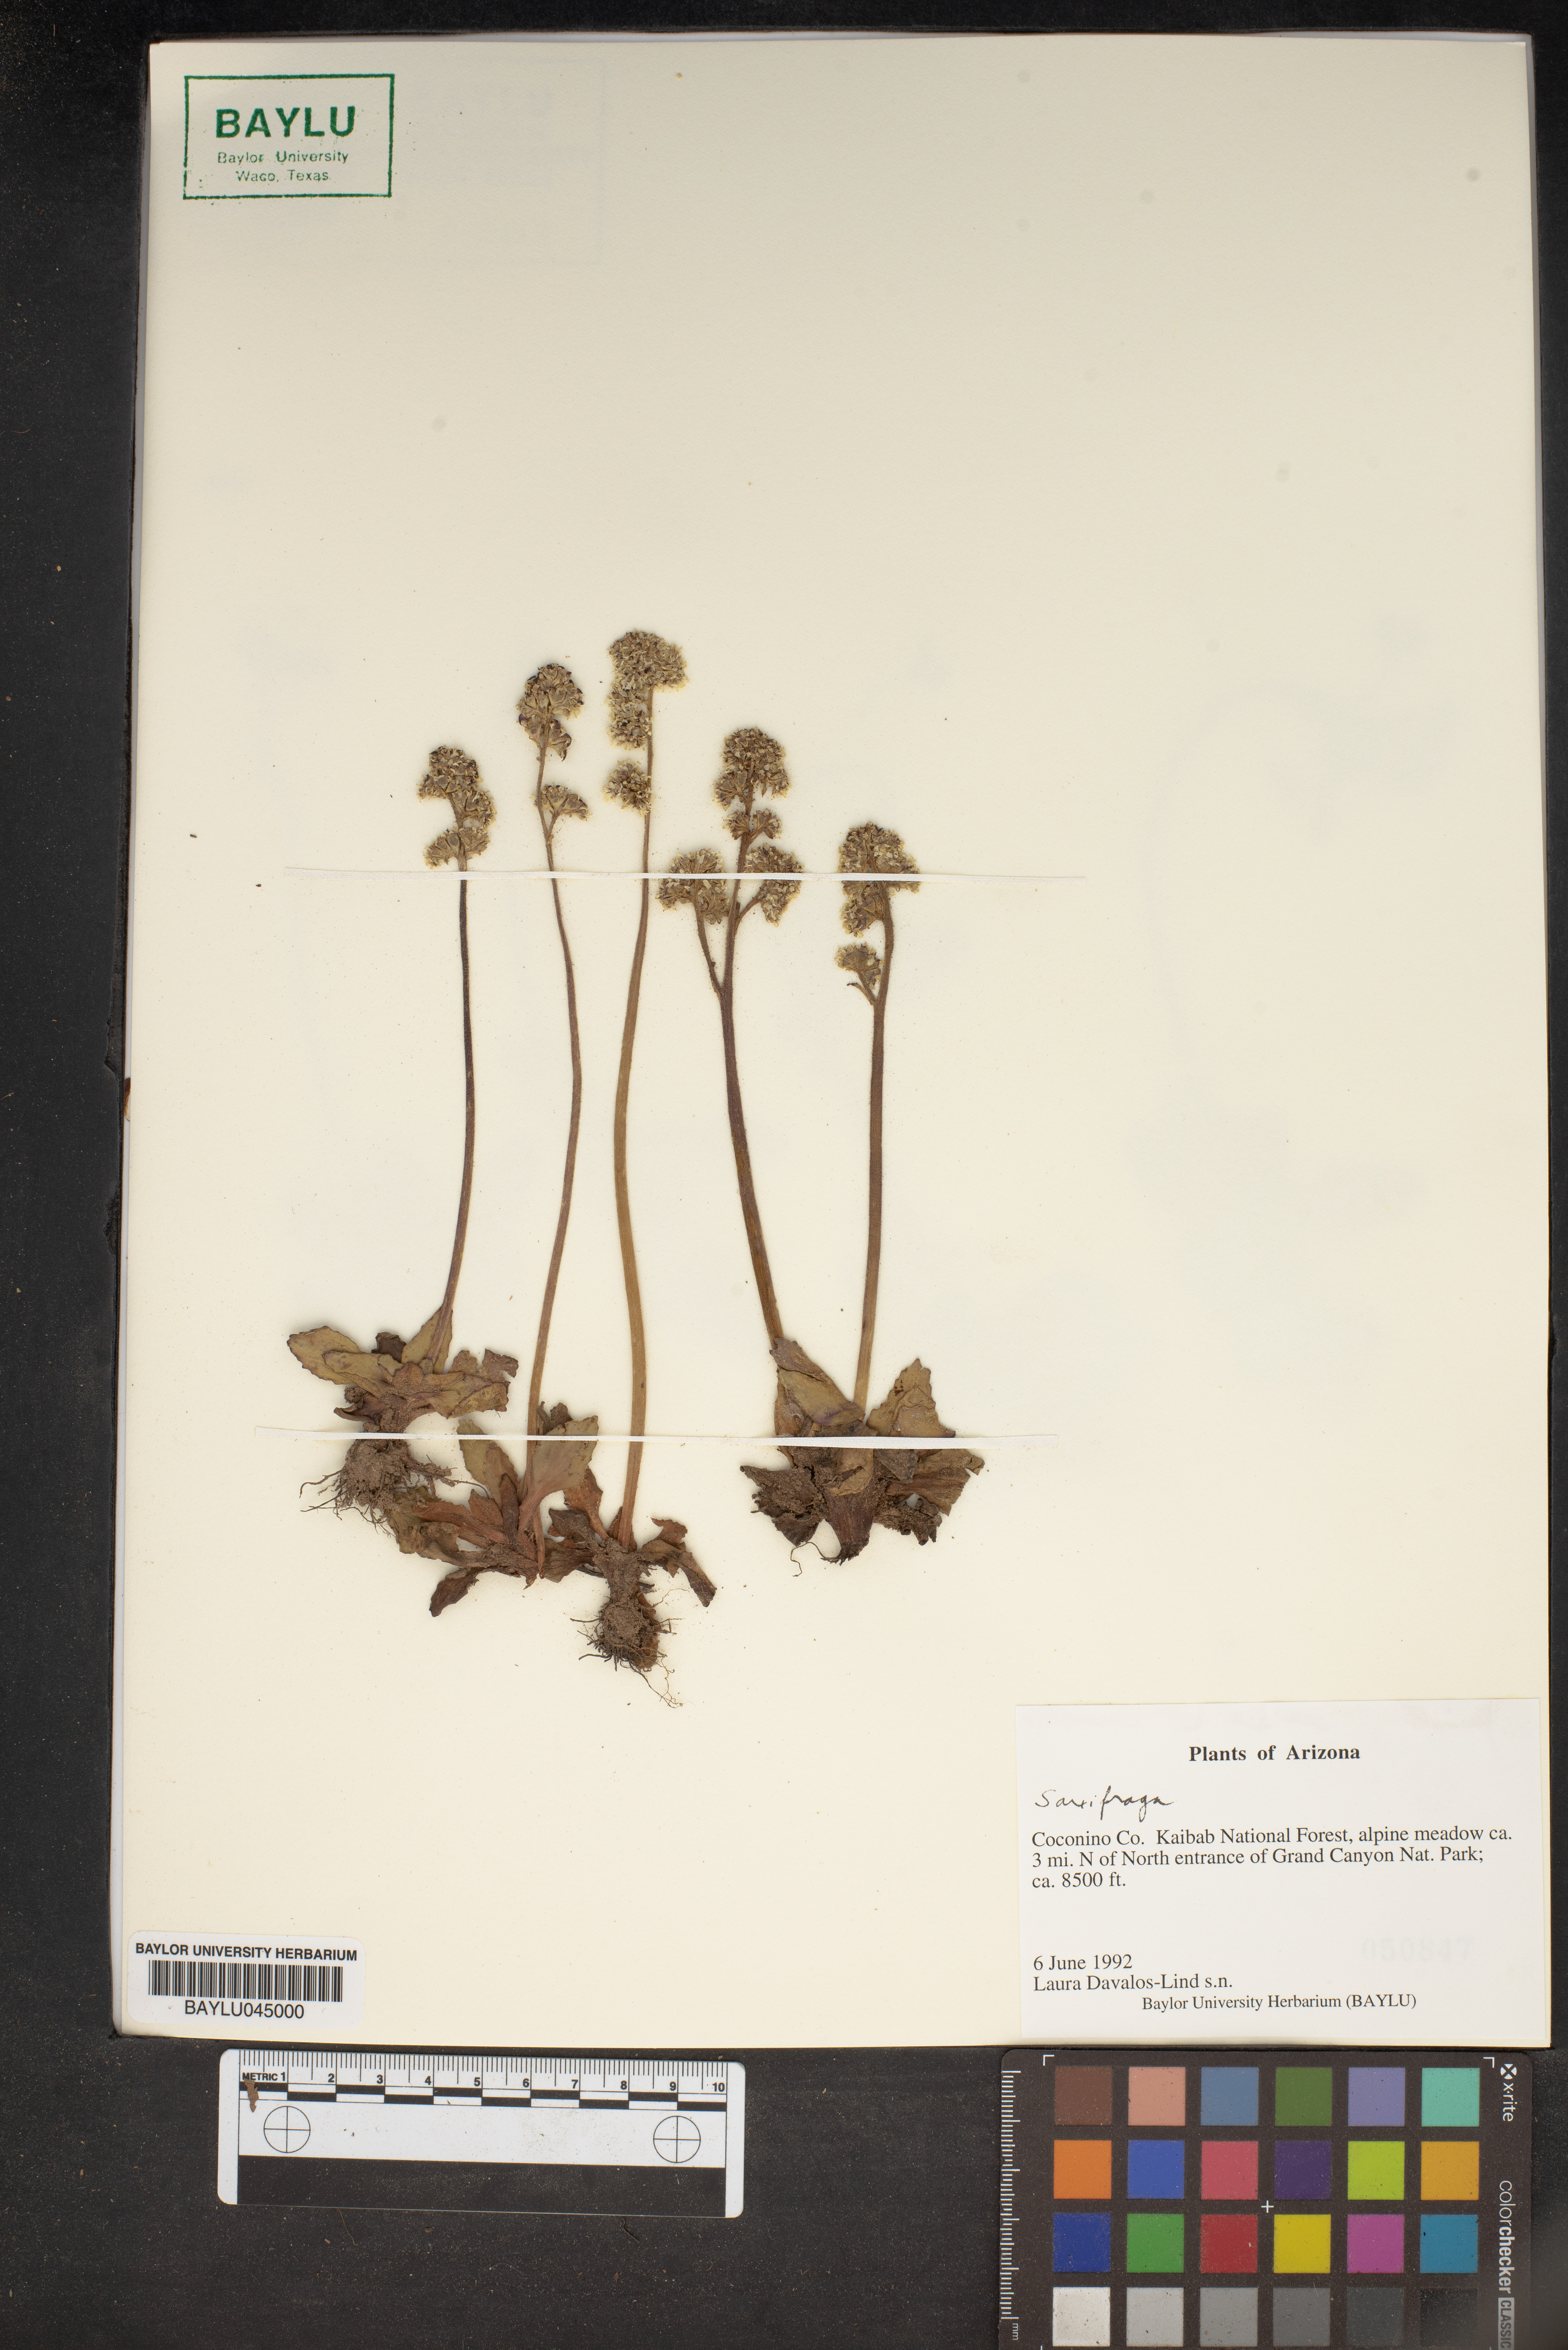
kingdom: Plantae
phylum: Tracheophyta
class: Magnoliopsida
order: Saxifragales
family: Saxifragaceae
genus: Saxifraga
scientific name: Saxifraga
